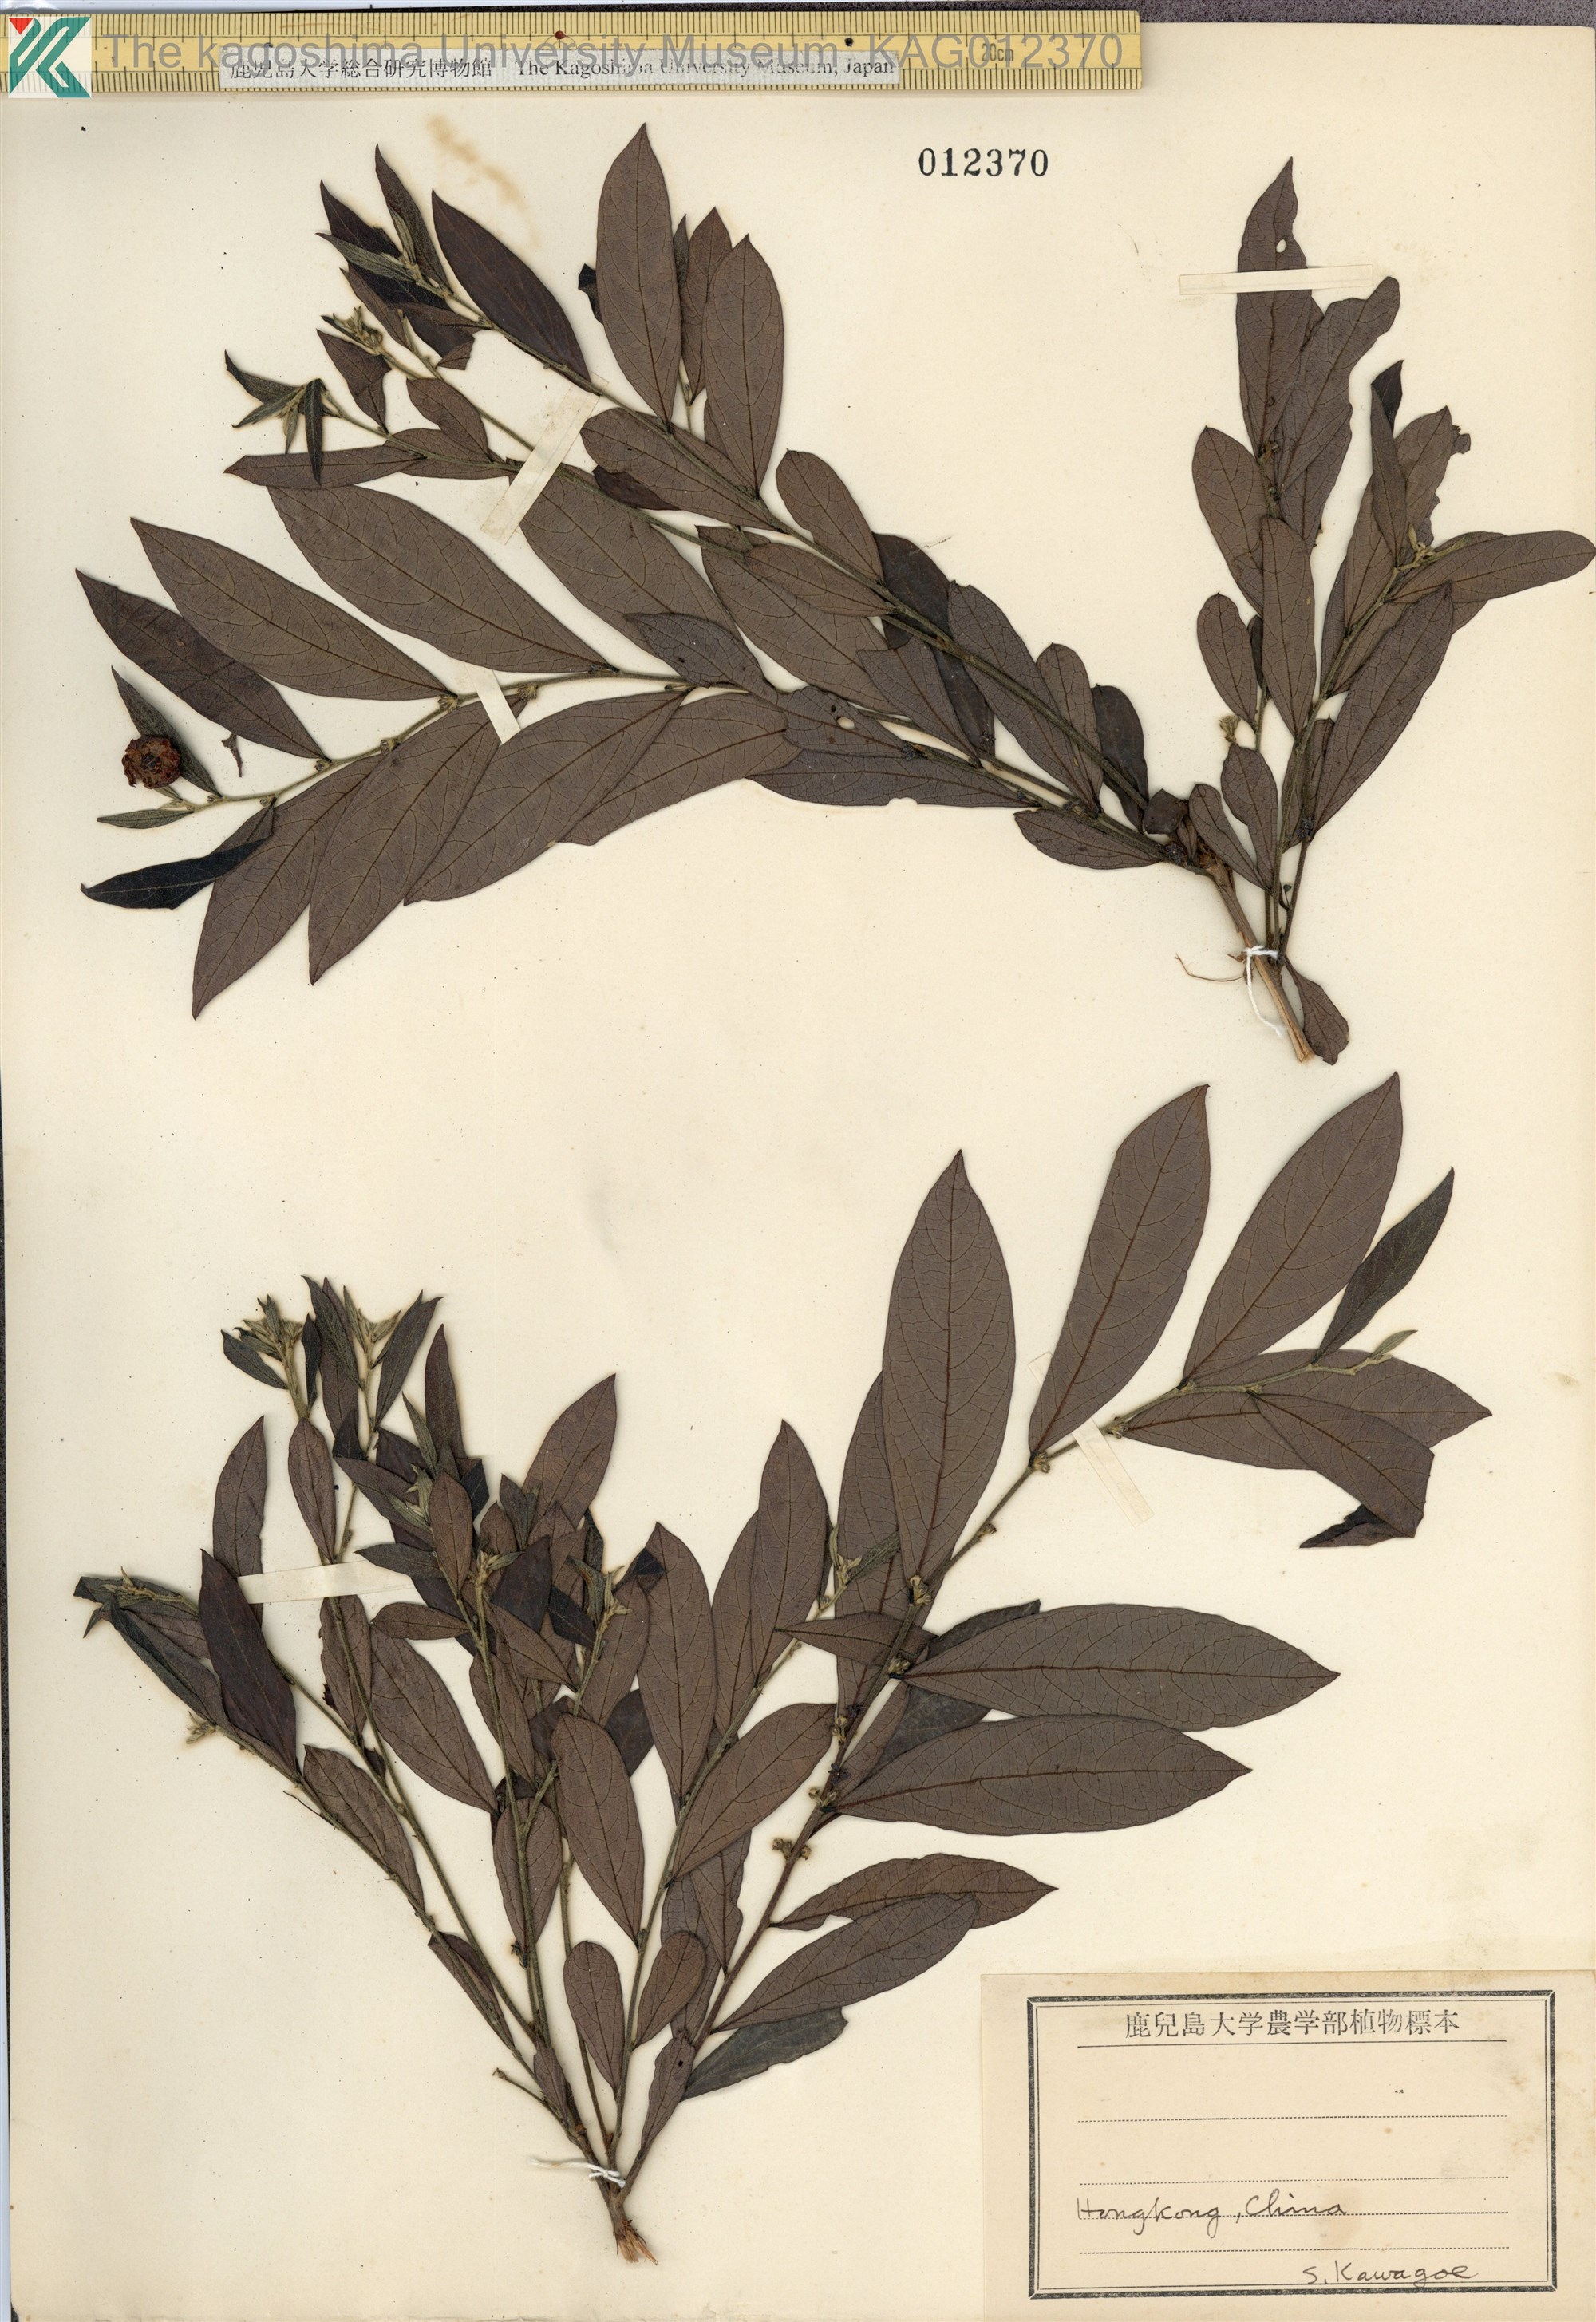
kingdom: Plantae
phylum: Tracheophyta
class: Magnoliopsida
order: Malpighiales
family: Phyllanthaceae
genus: Glochidion
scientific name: Glochidion puberum
